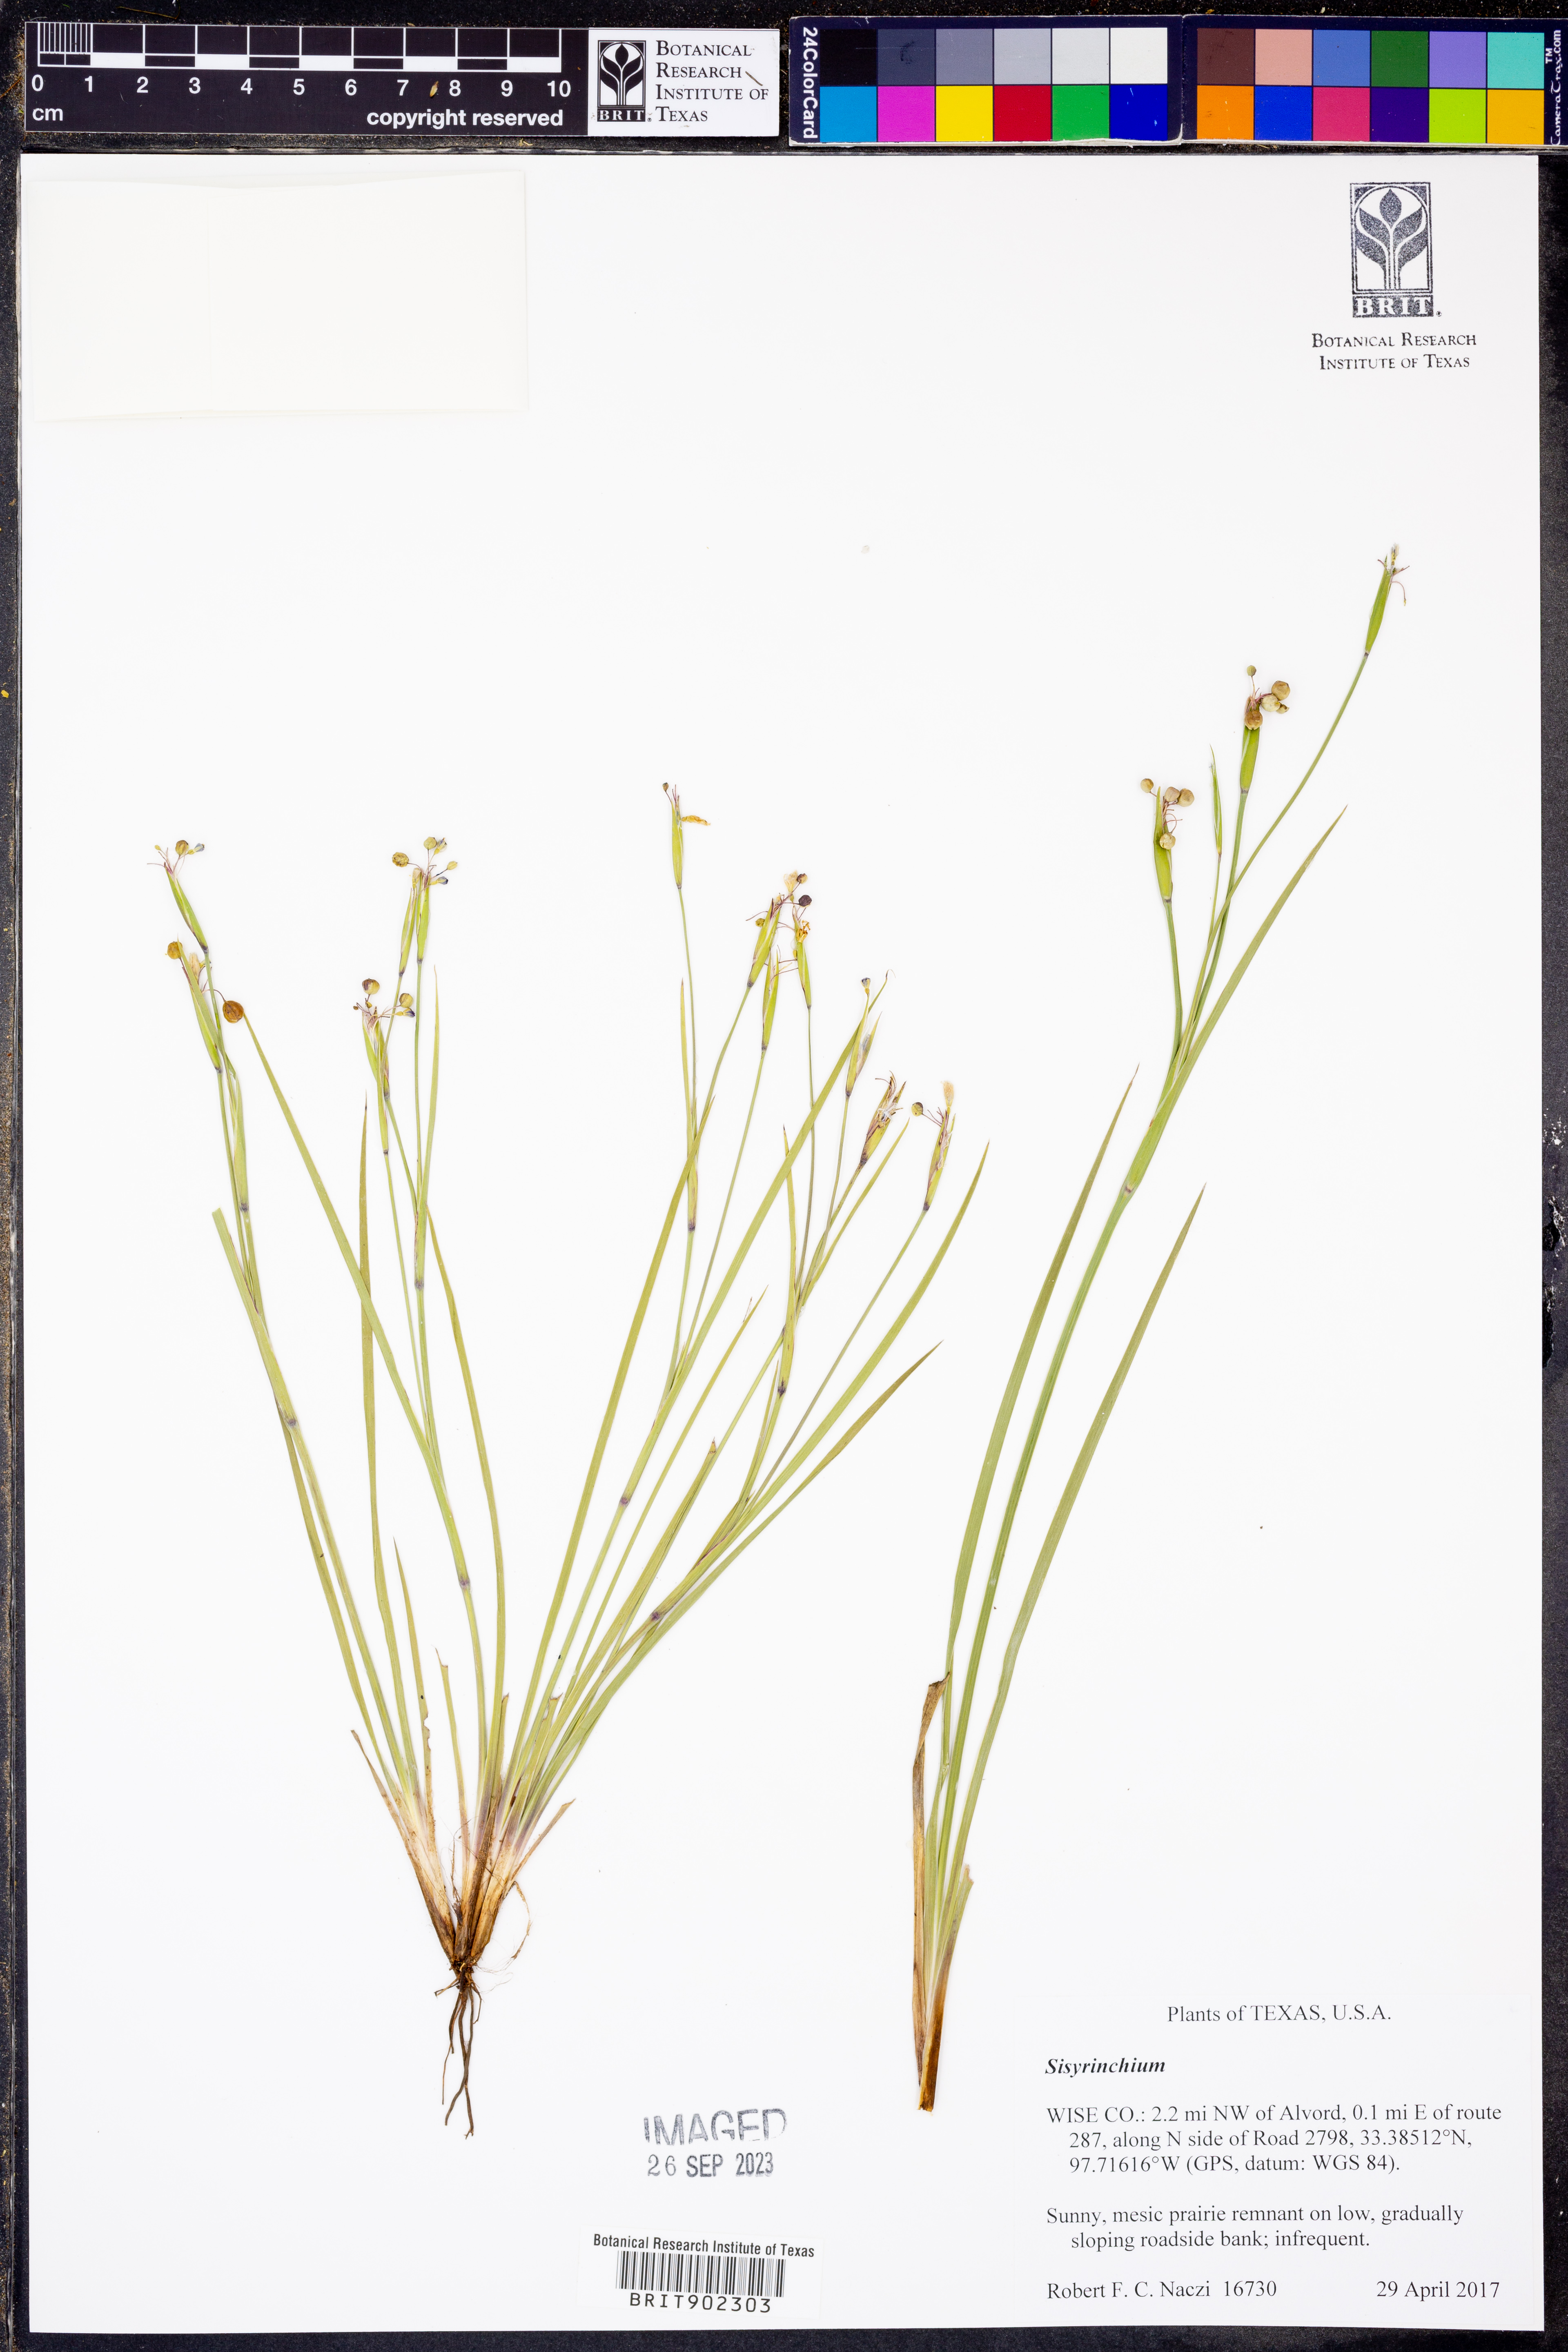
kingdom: Plantae
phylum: Tracheophyta
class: Liliopsida
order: Asparagales
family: Iridaceae
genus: Sisyrinchium
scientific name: Sisyrinchium
